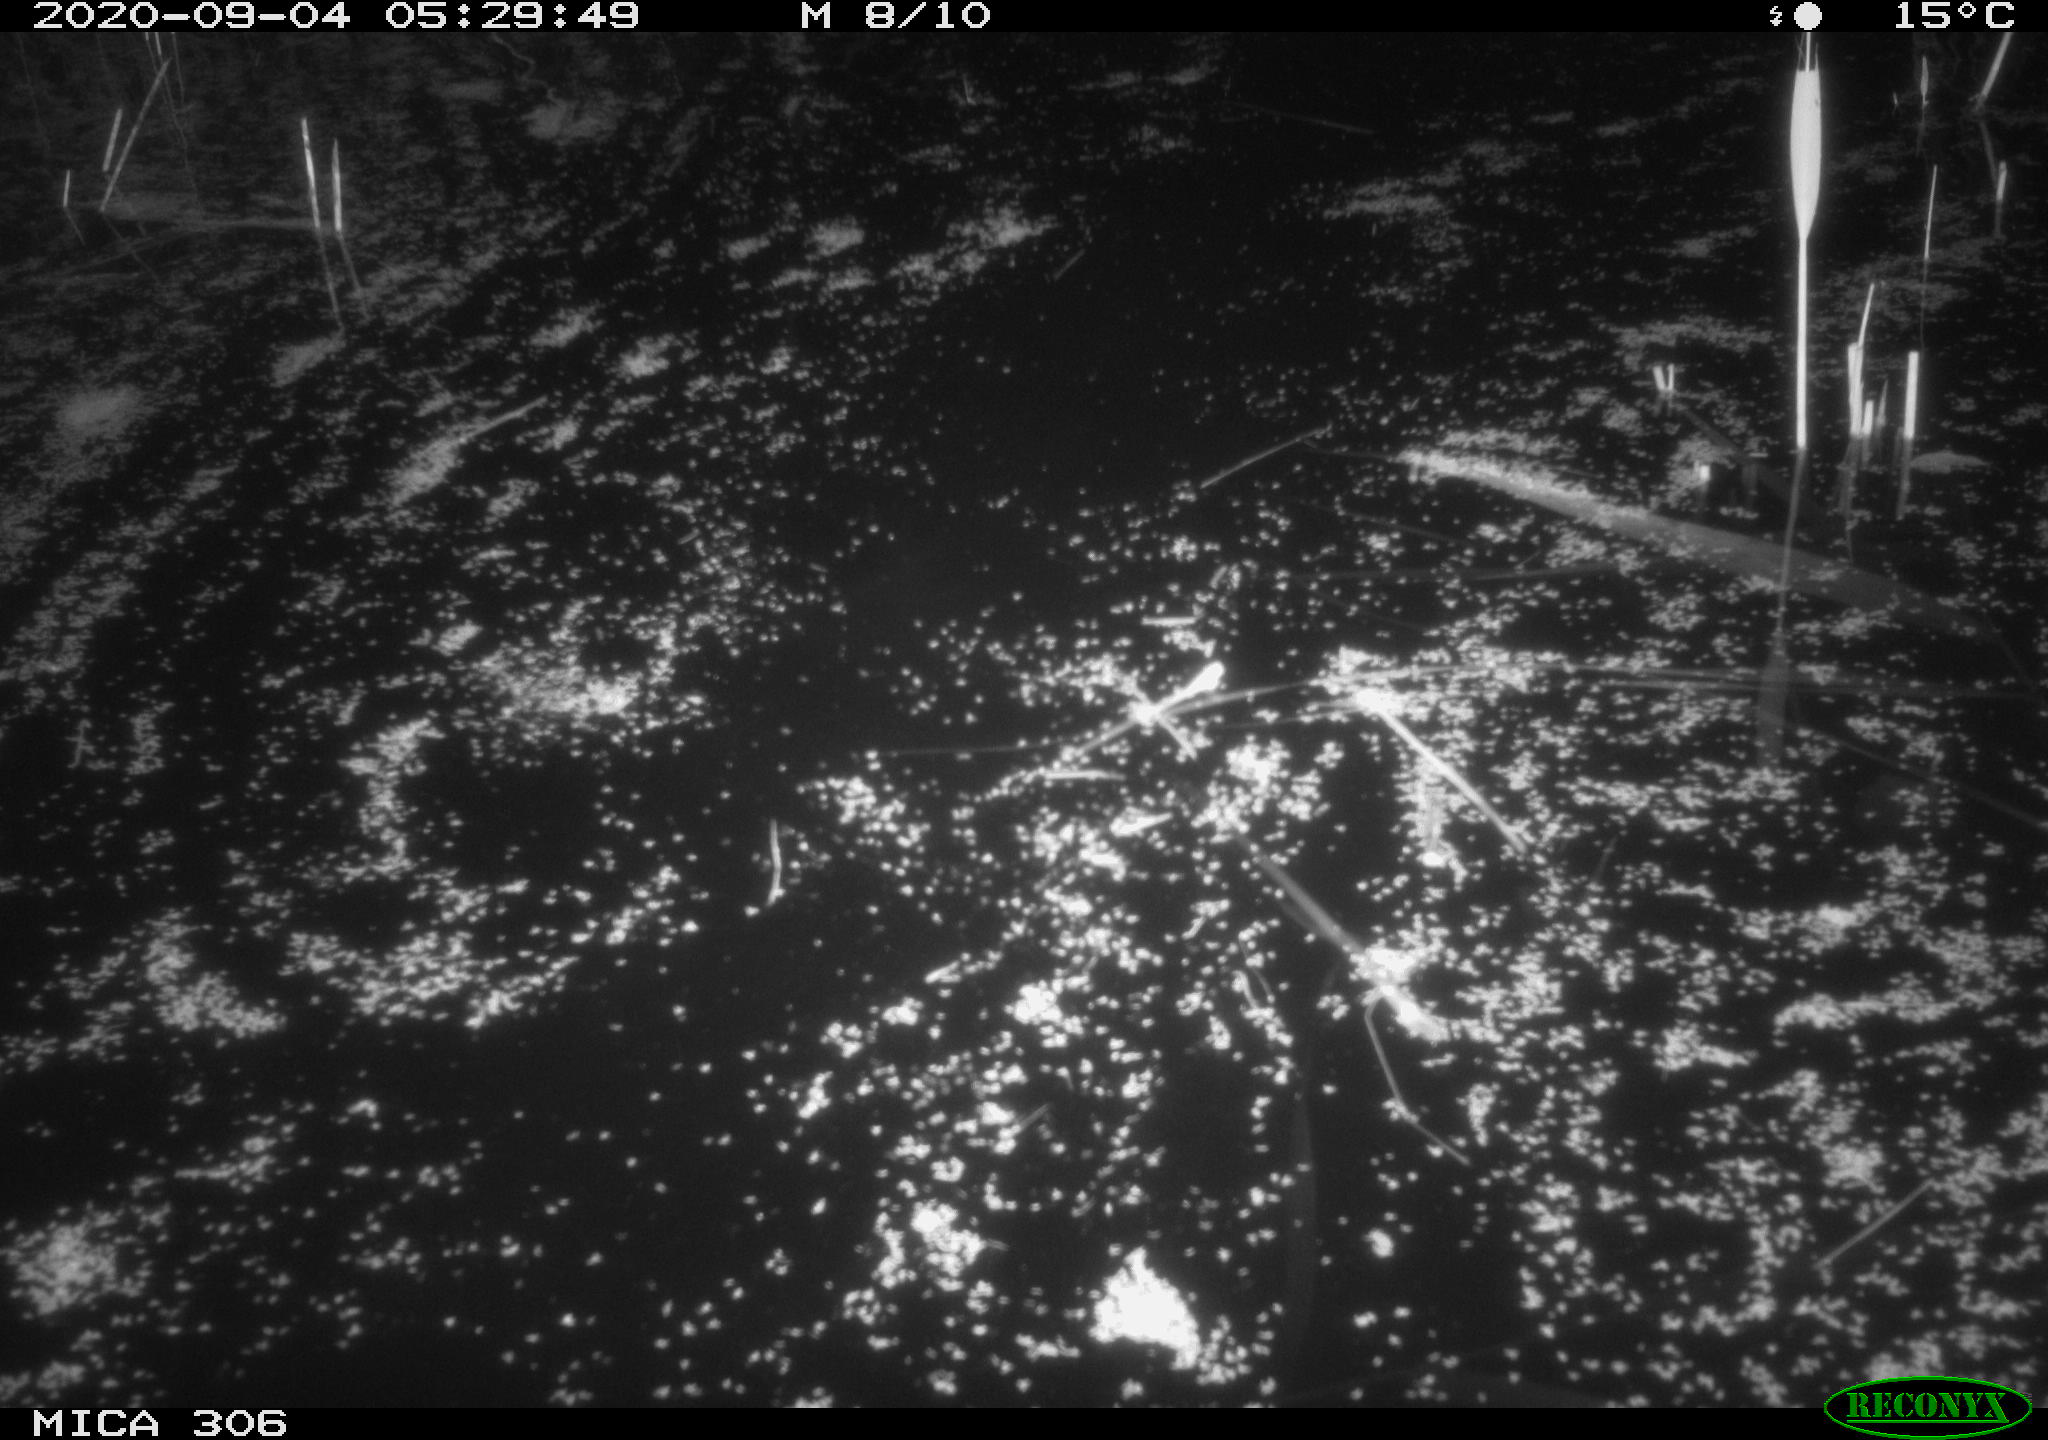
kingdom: Animalia
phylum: Chordata
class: Mammalia
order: Rodentia
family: Cricetidae
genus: Ondatra
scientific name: Ondatra zibethicus
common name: Muskrat
